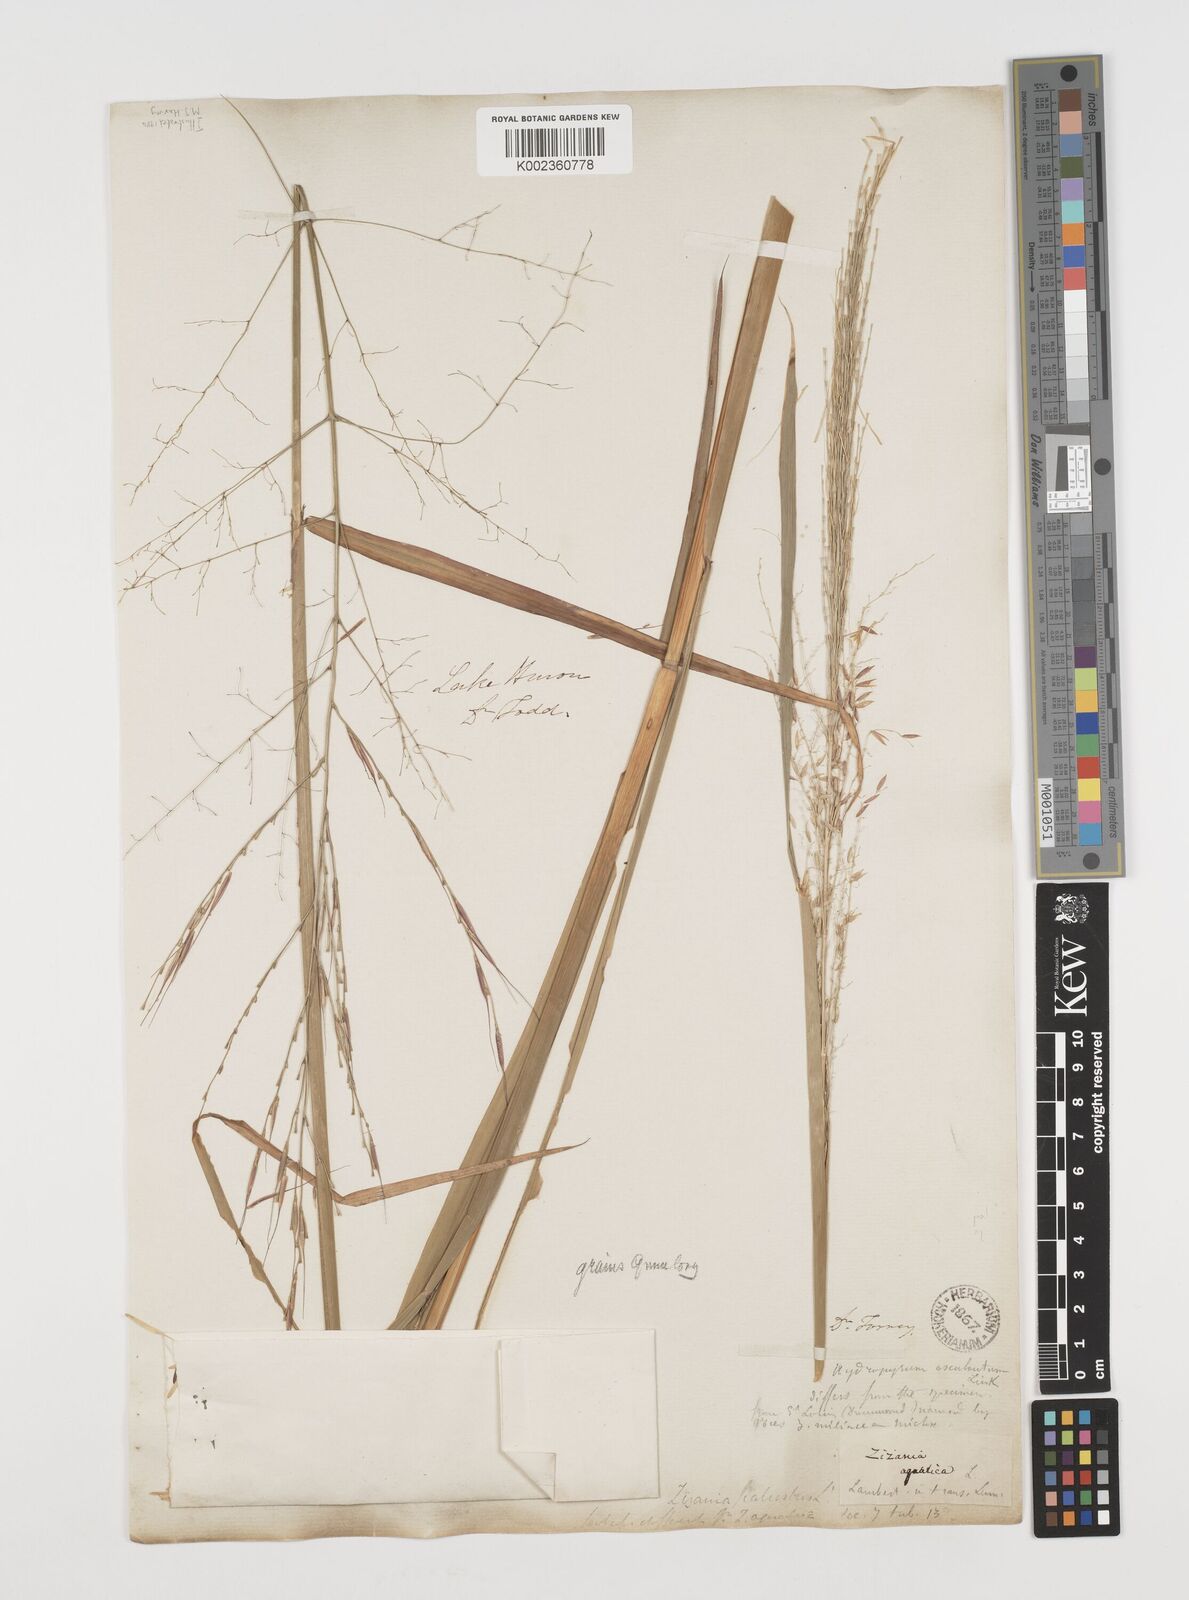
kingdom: Plantae
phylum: Tracheophyta
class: Liliopsida
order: Poales
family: Poaceae
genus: Zizania
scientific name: Zizania palustris
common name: Northern wild rice
